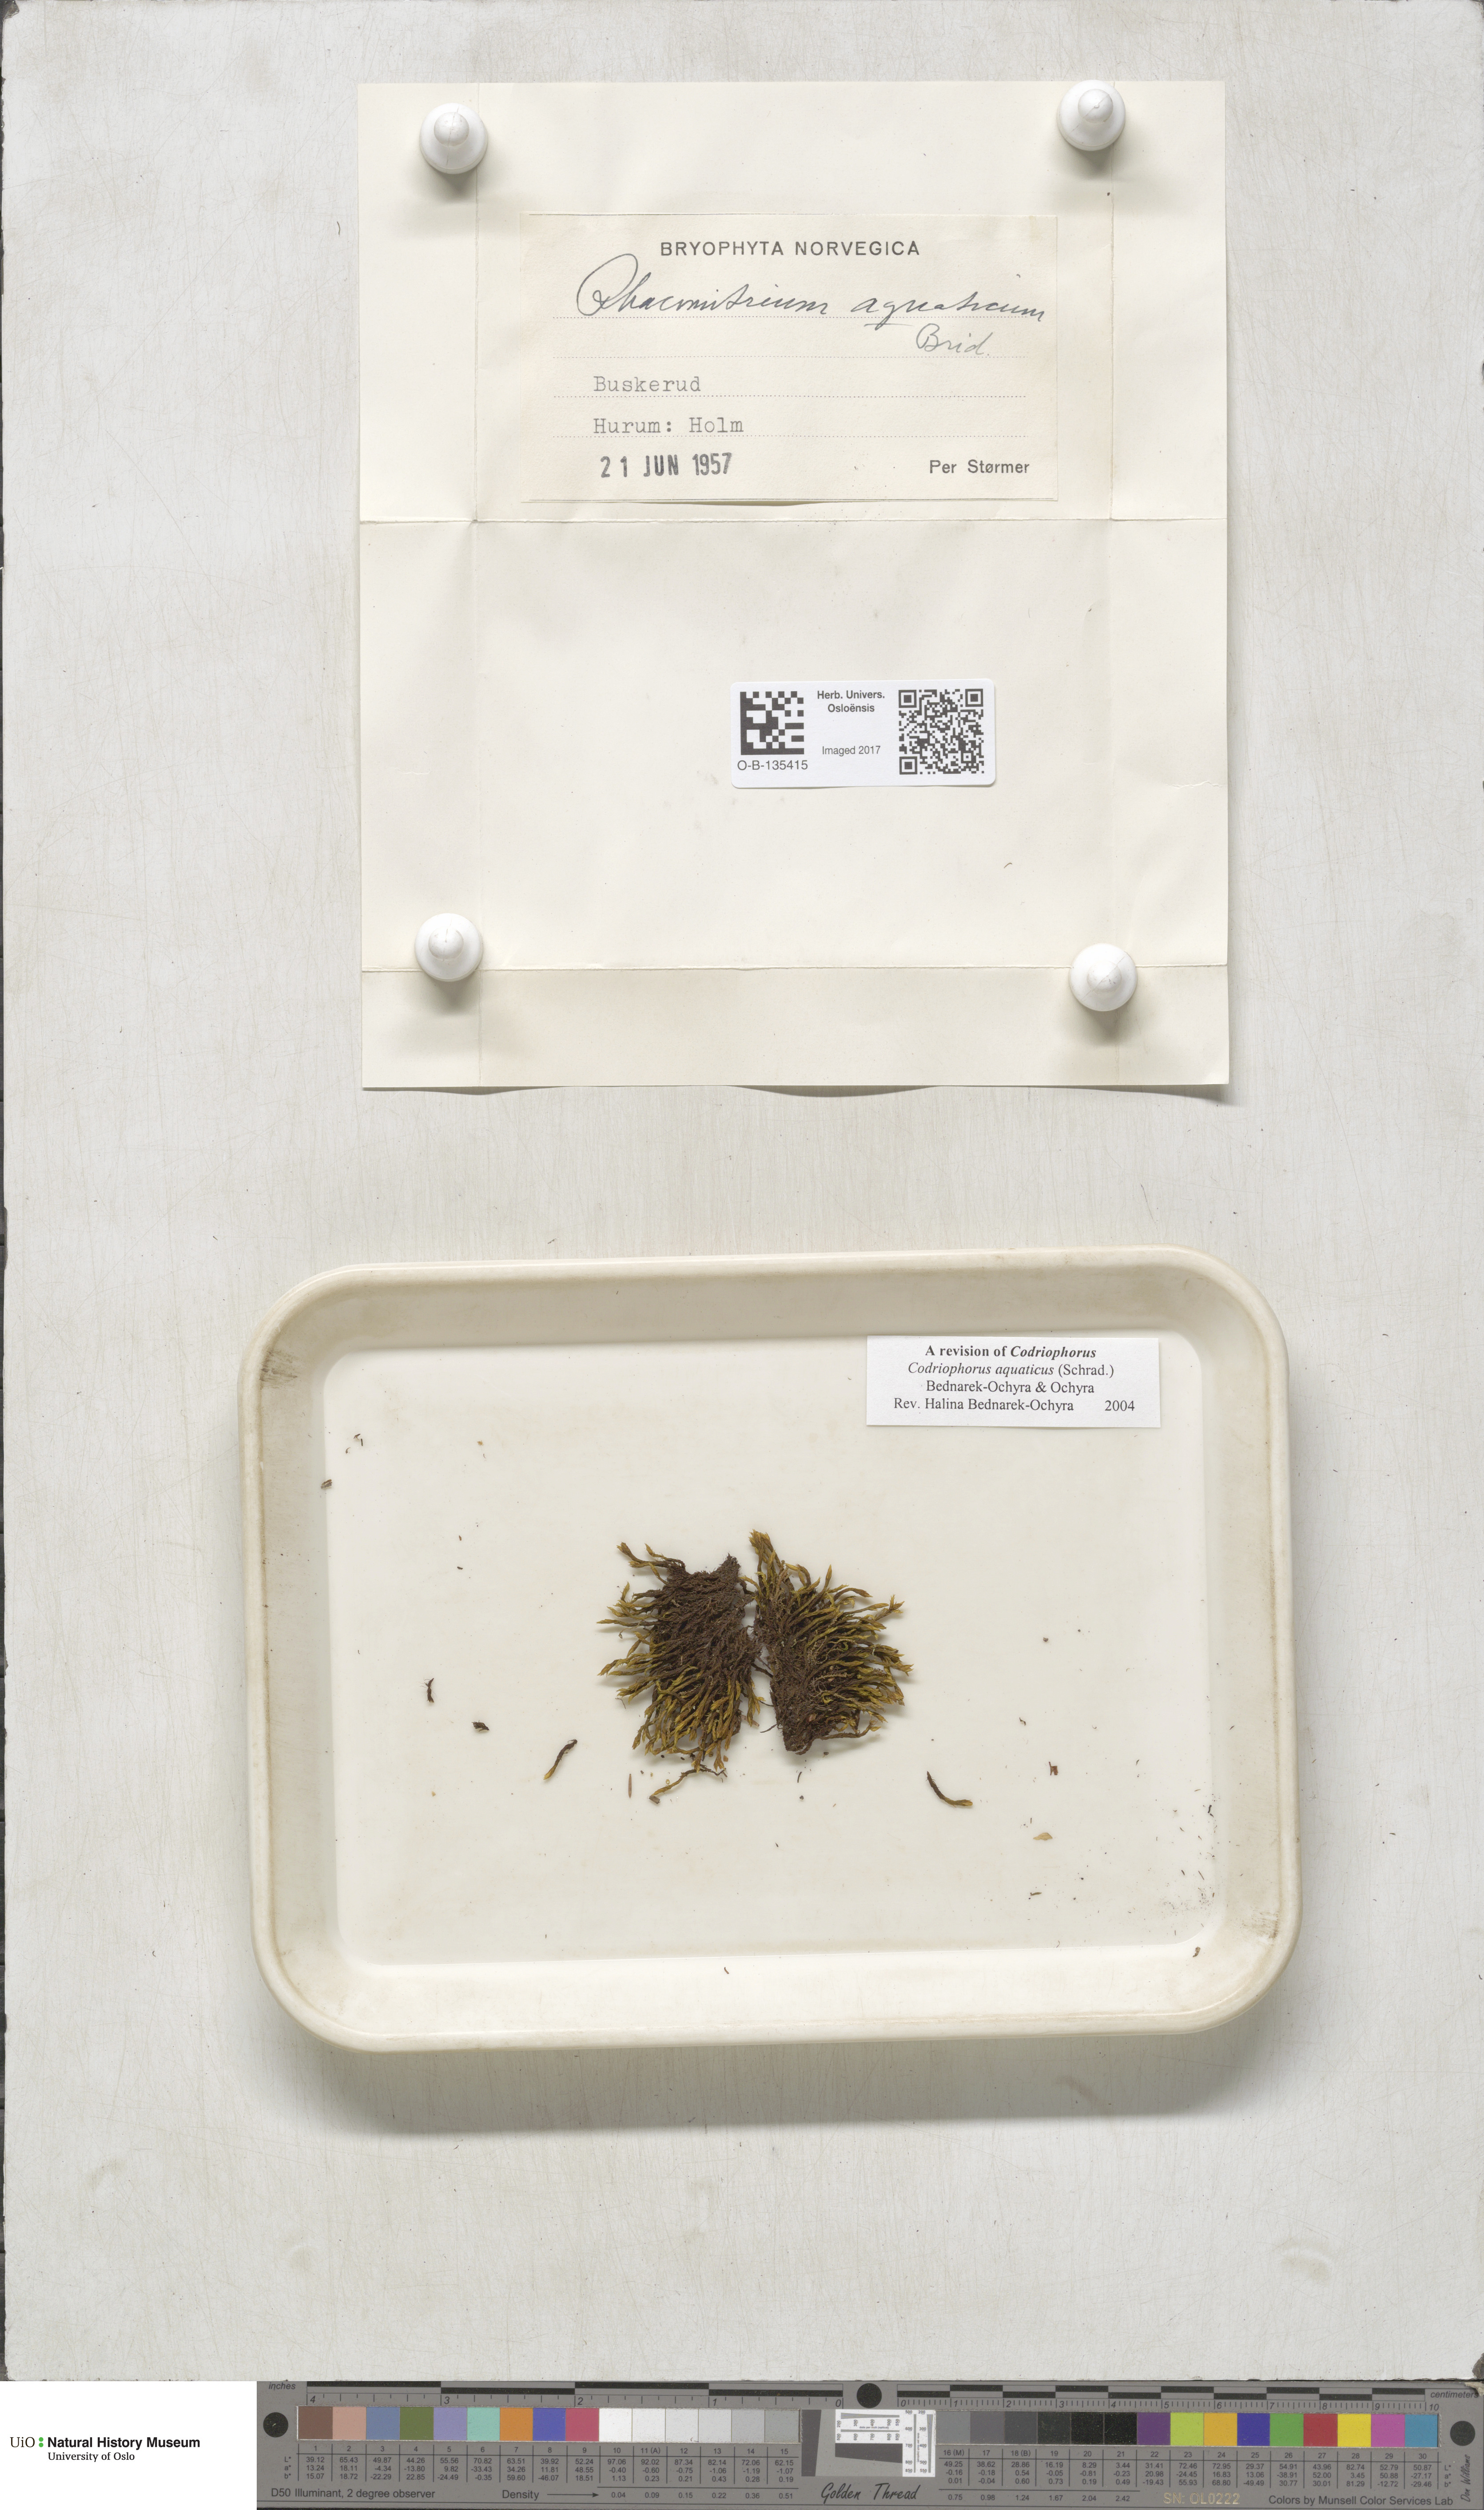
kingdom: Plantae
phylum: Bryophyta
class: Bryopsida
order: Grimmiales
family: Grimmiaceae
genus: Codriophorus
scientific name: Codriophorus aquaticus
